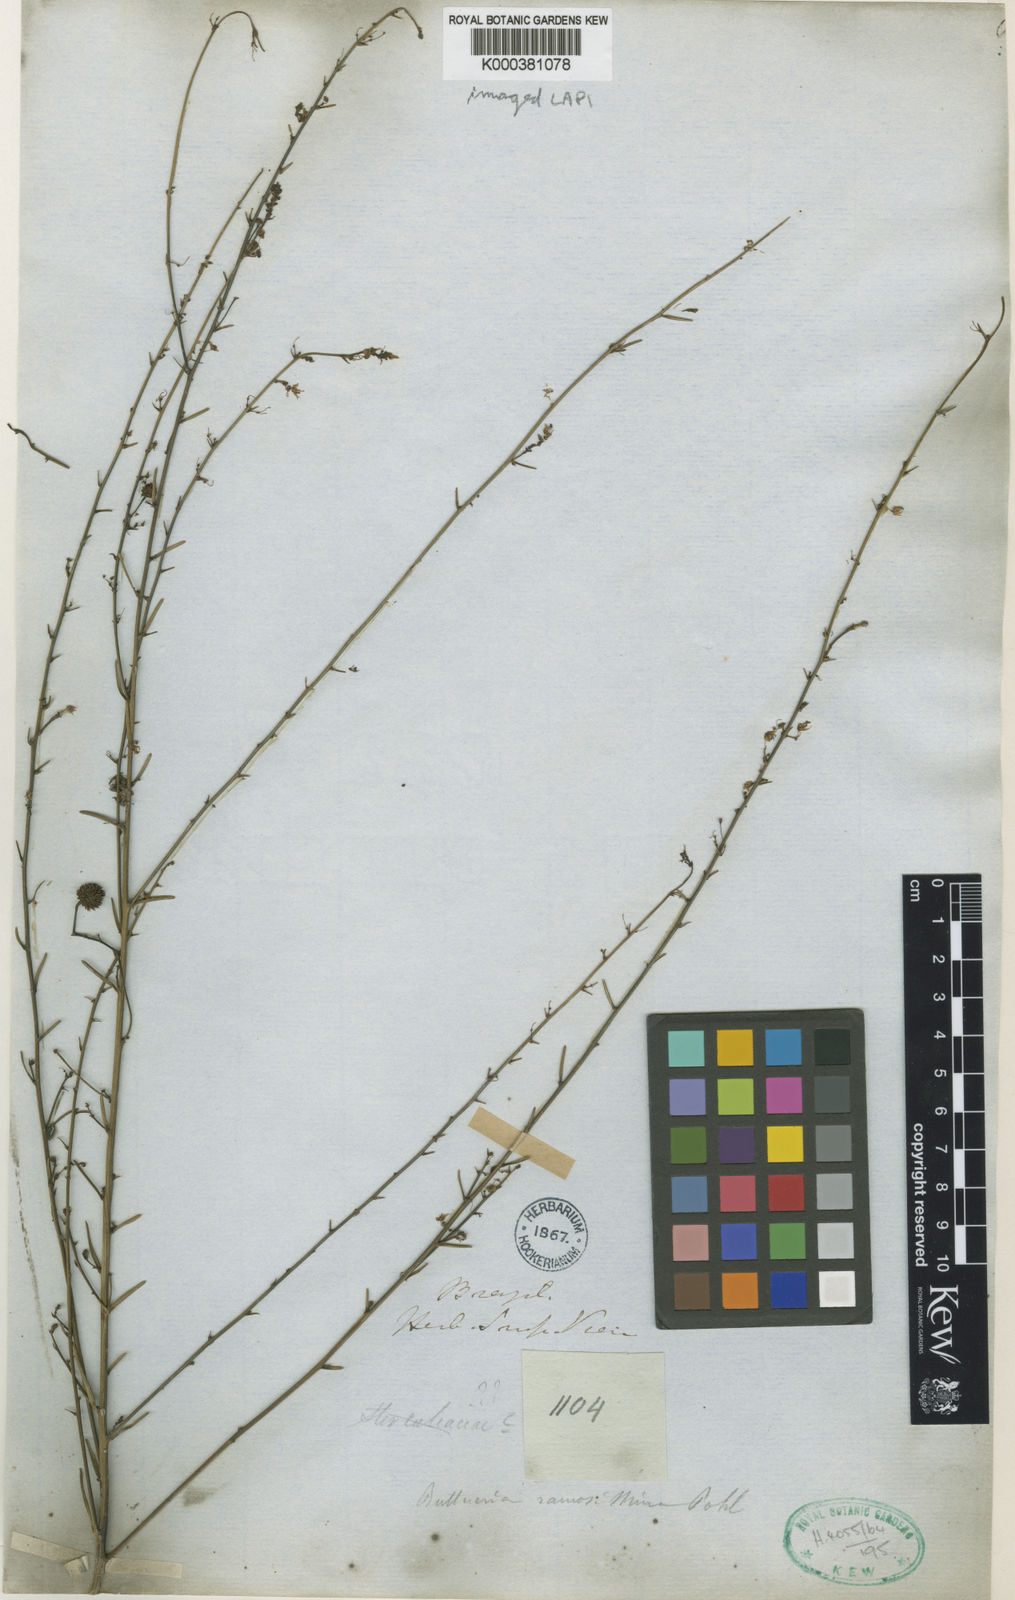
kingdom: Plantae
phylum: Tracheophyta
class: Magnoliopsida
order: Malvales
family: Malvaceae
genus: Byttneria
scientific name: Byttneria ramosissima
